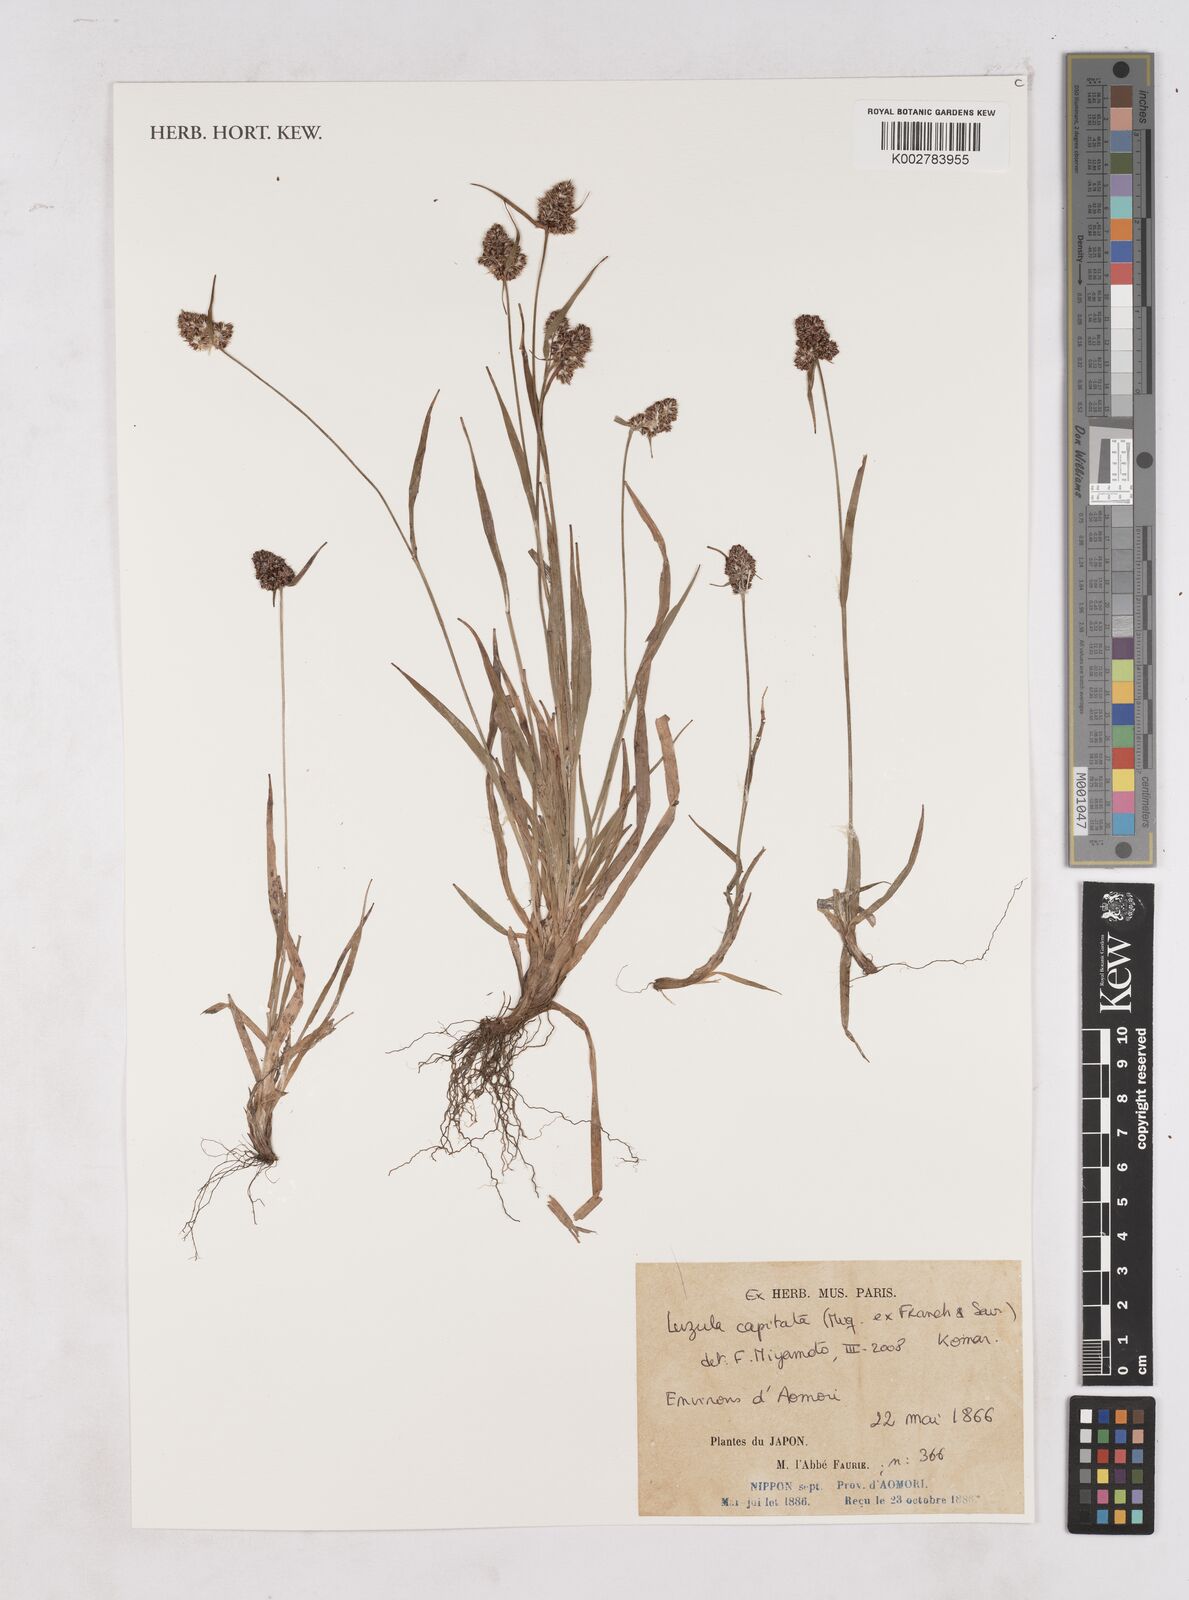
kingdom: Plantae
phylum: Tracheophyta
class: Liliopsida
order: Poales
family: Juncaceae
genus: Luzula
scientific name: Luzula capitata
